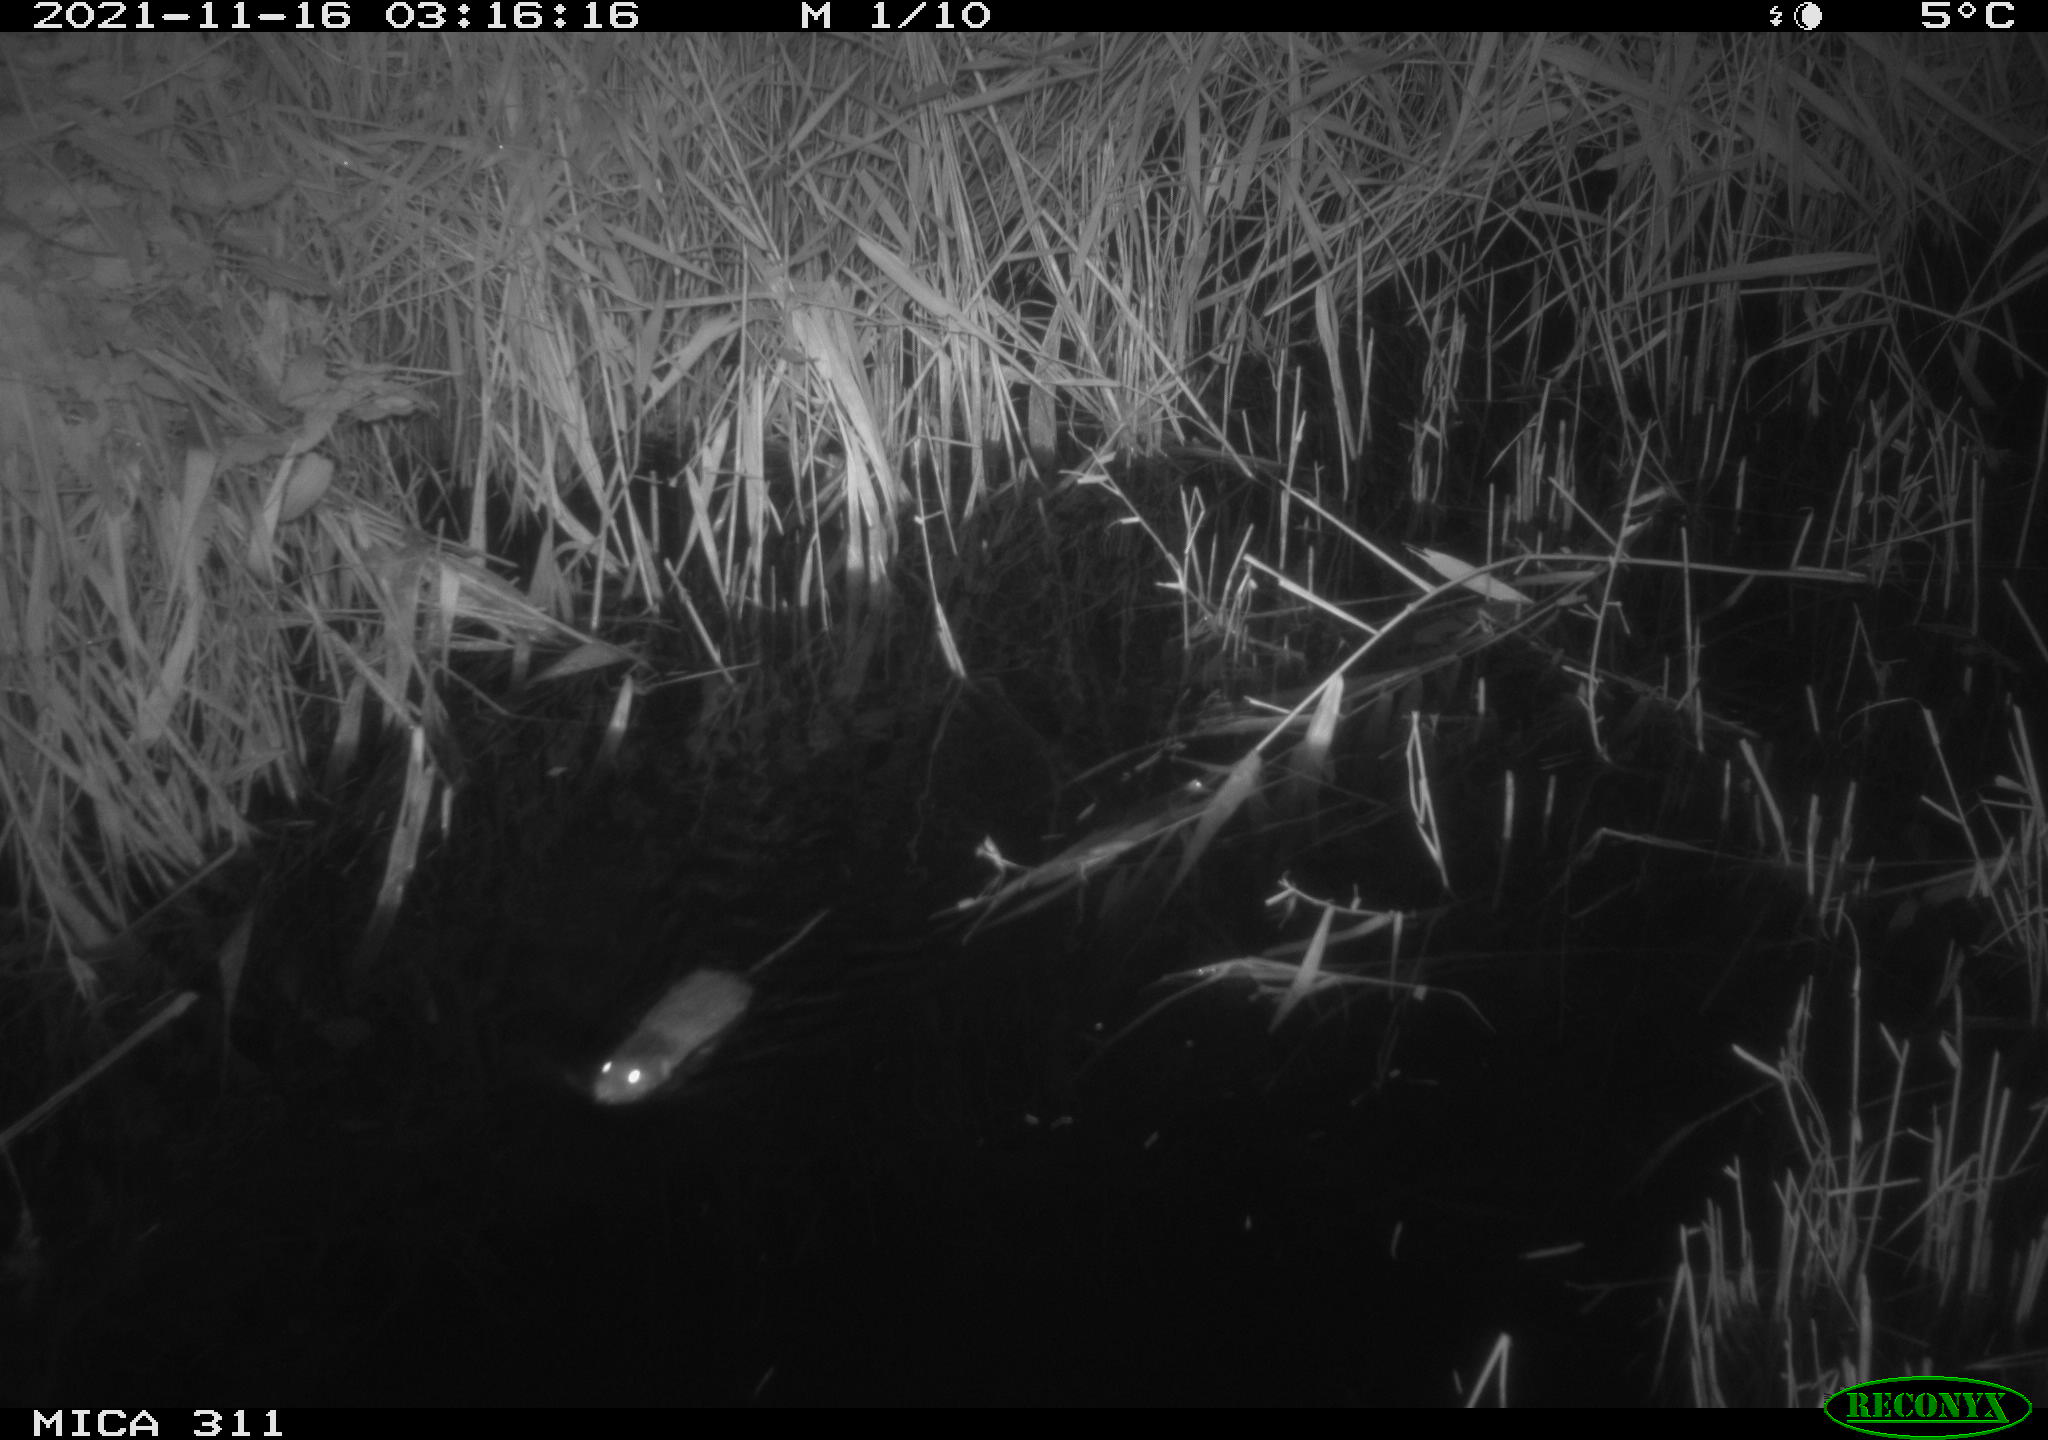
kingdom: Animalia
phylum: Chordata
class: Mammalia
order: Rodentia
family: Muridae
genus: Rattus
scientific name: Rattus norvegicus
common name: Brown rat
